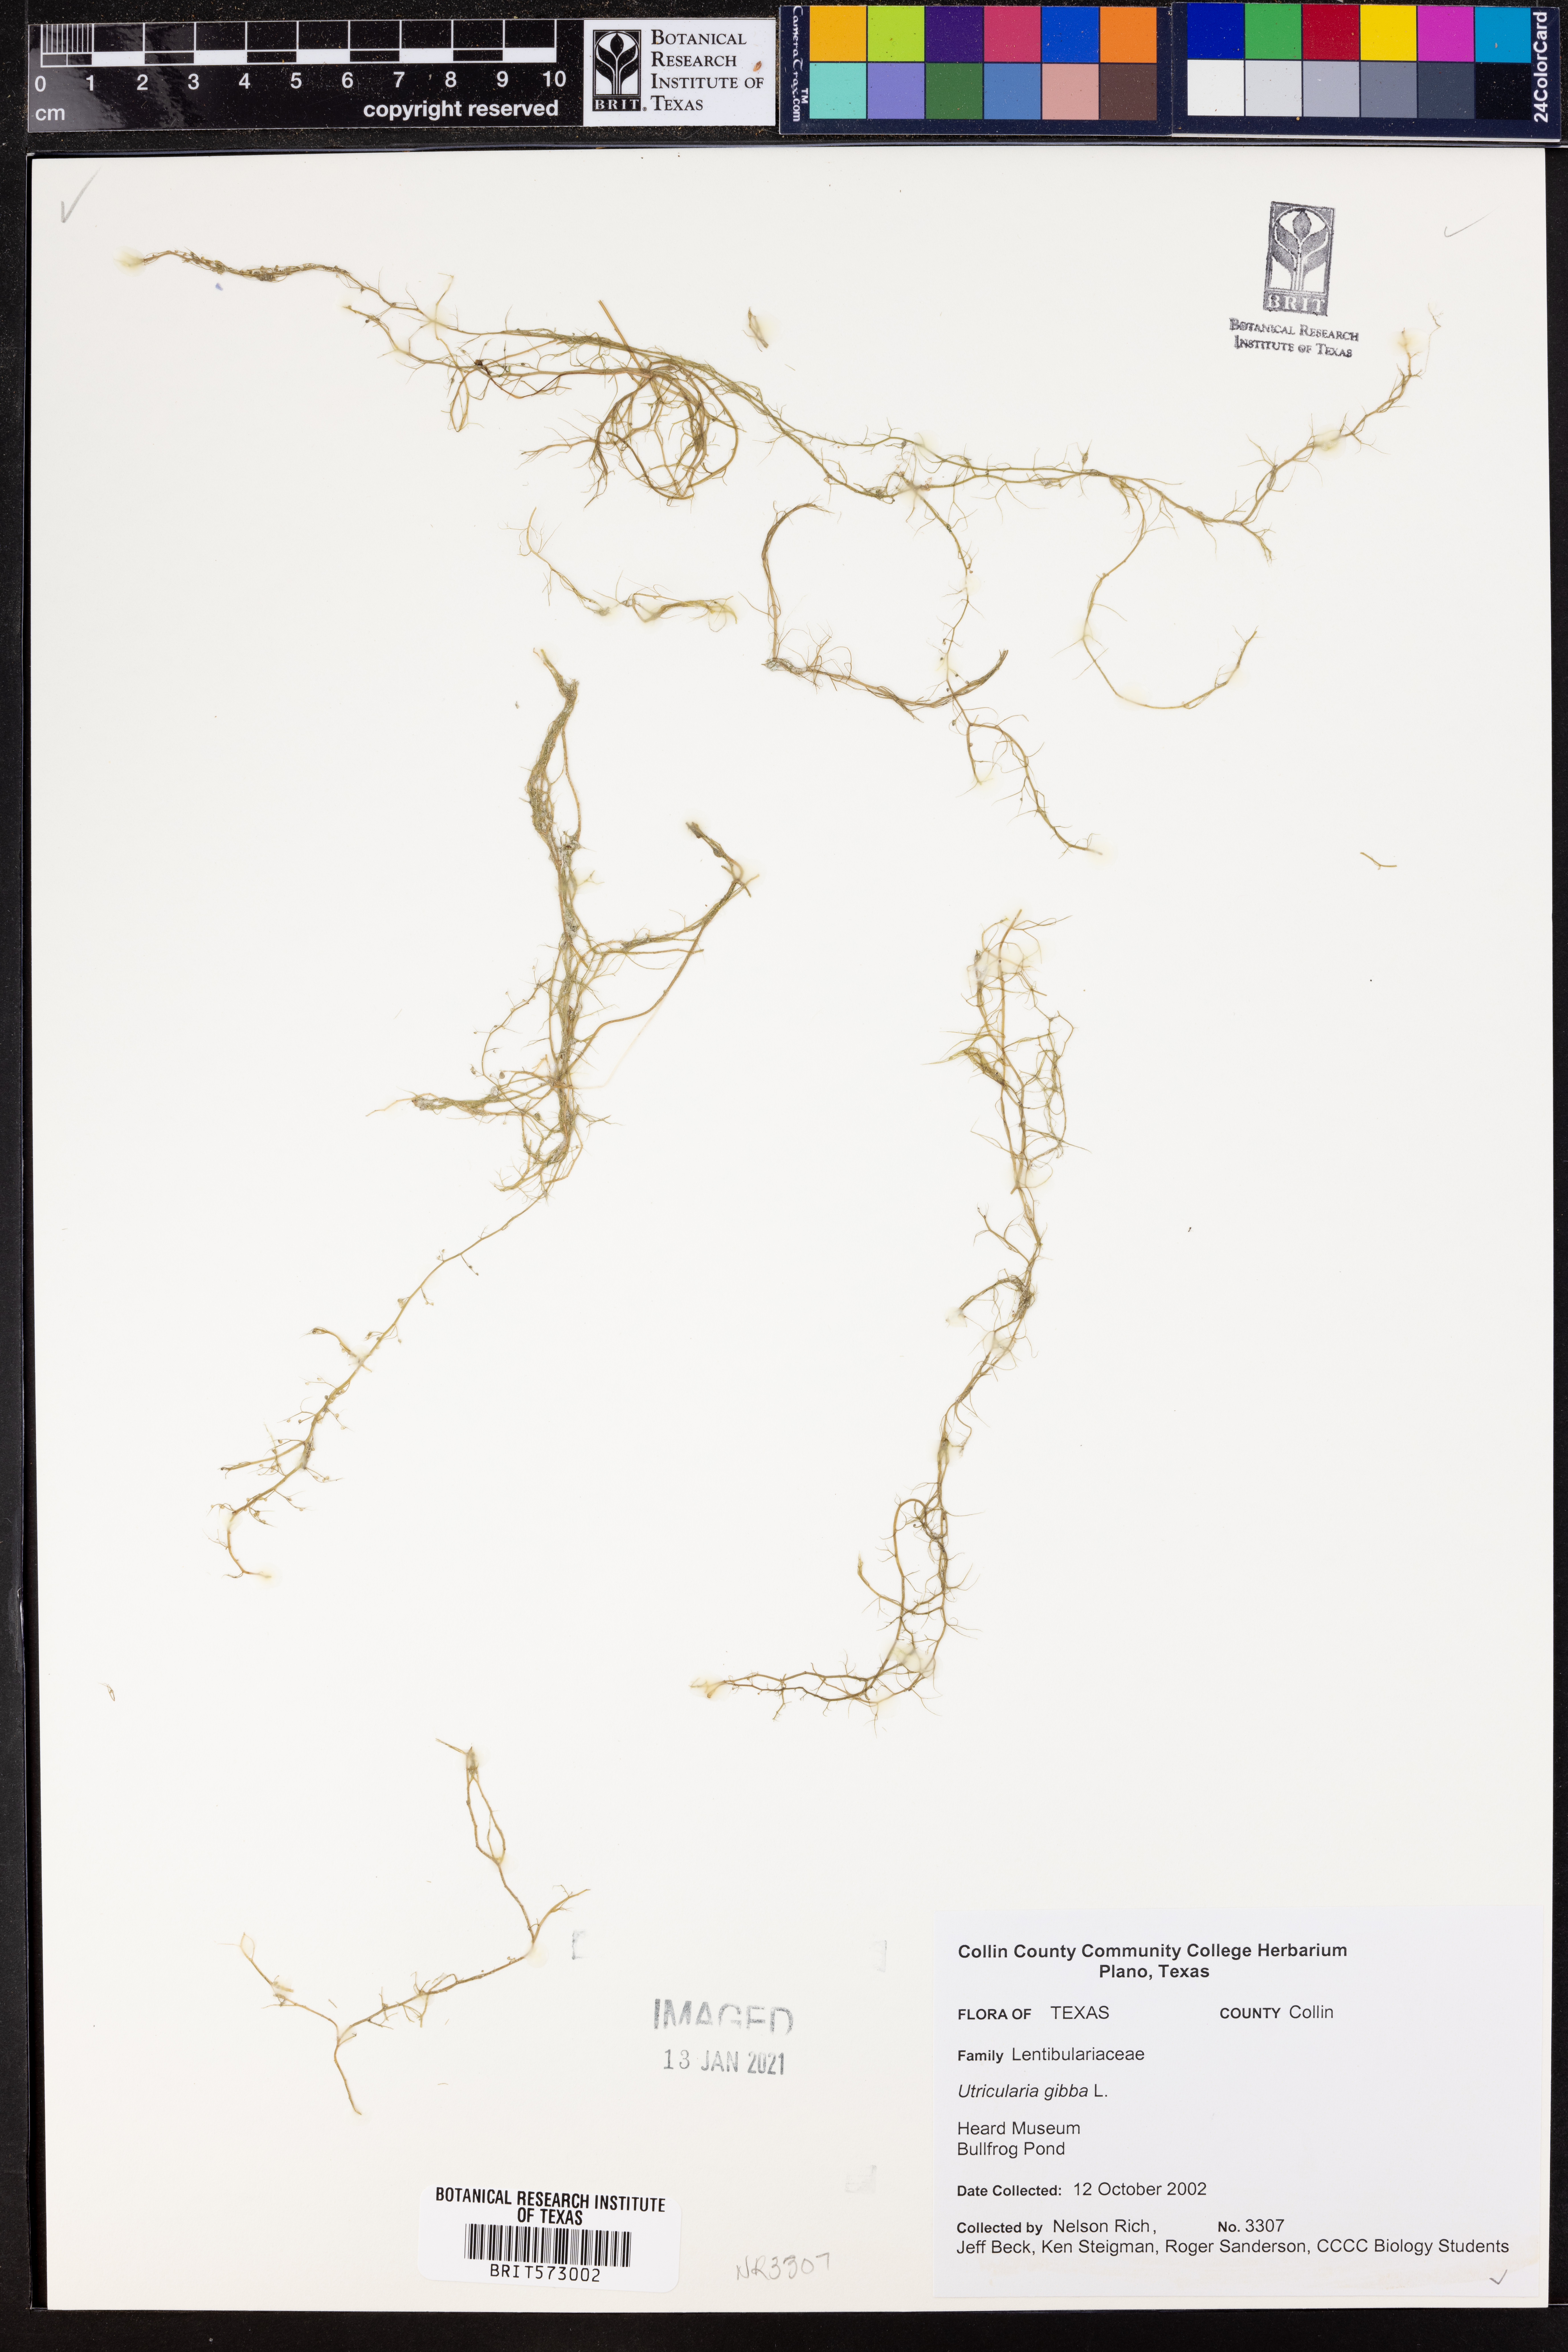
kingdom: Plantae
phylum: Tracheophyta
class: Magnoliopsida
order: Lamiales
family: Lentibulariaceae
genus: Utricularia
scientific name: Utricularia gibba
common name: Humped bladderwort
